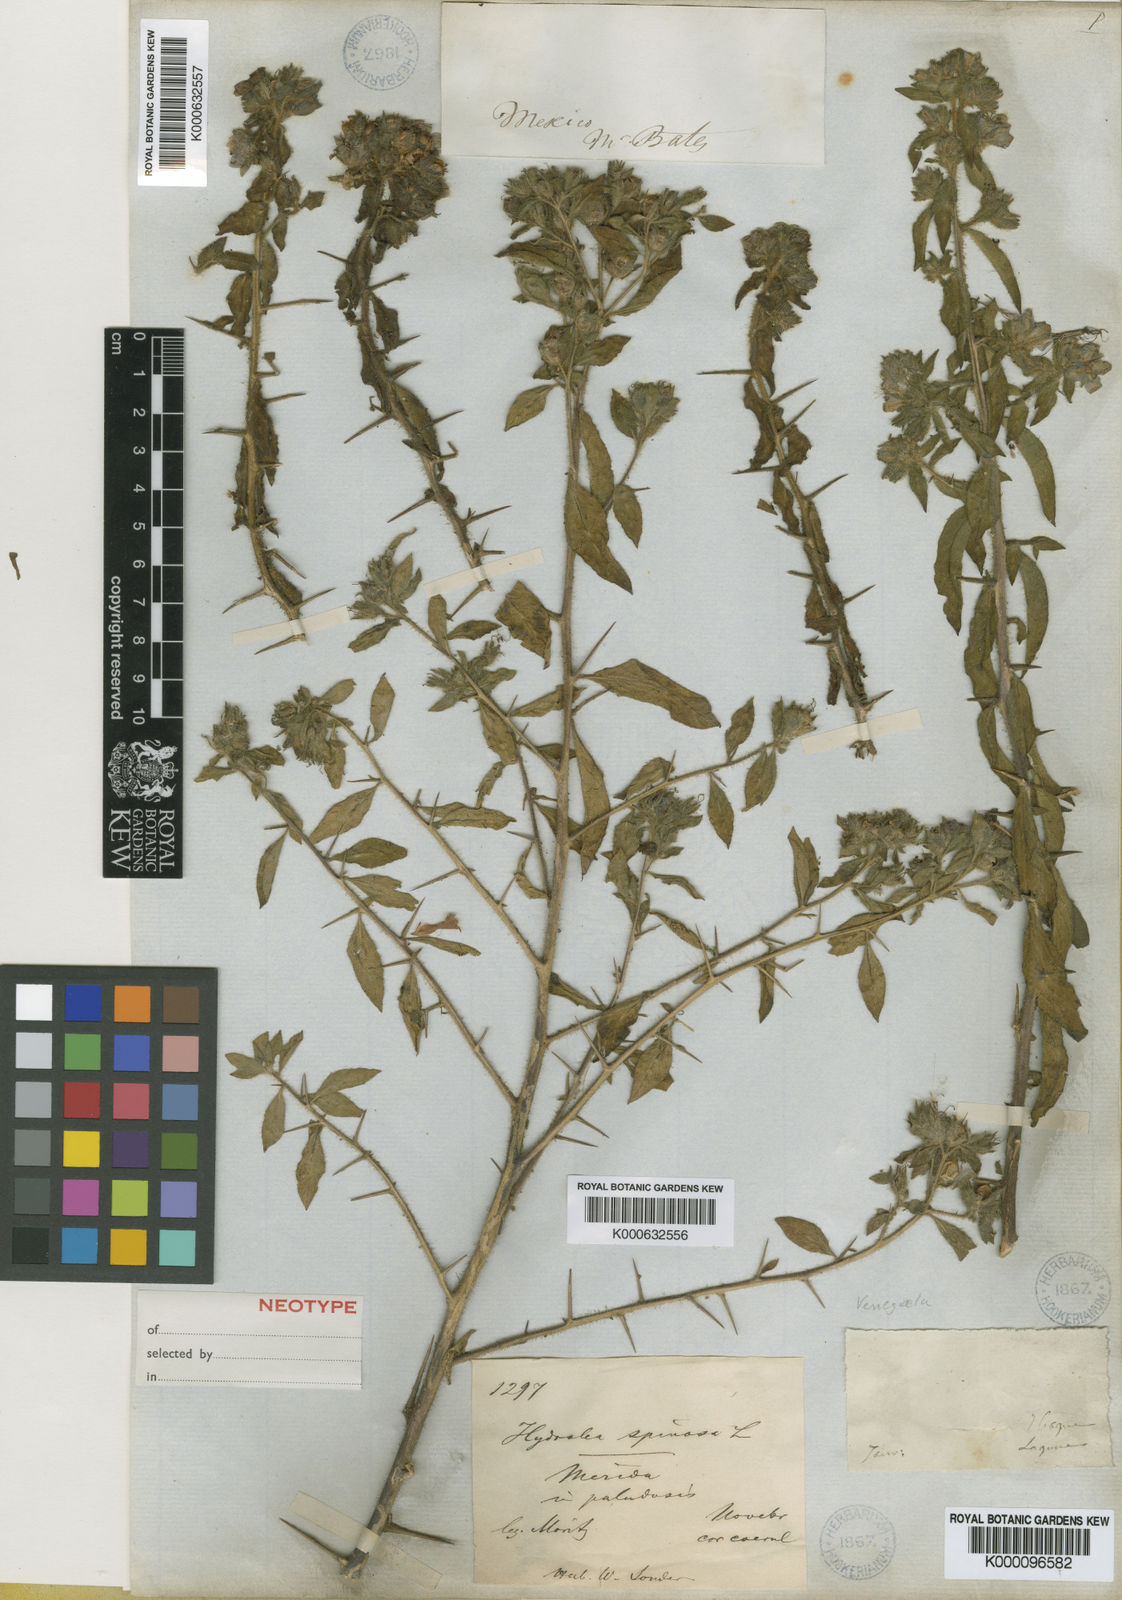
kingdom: Plantae
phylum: Tracheophyta
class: Magnoliopsida
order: Solanales
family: Hydroleaceae
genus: Hydrolea
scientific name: Hydrolea spinosa
